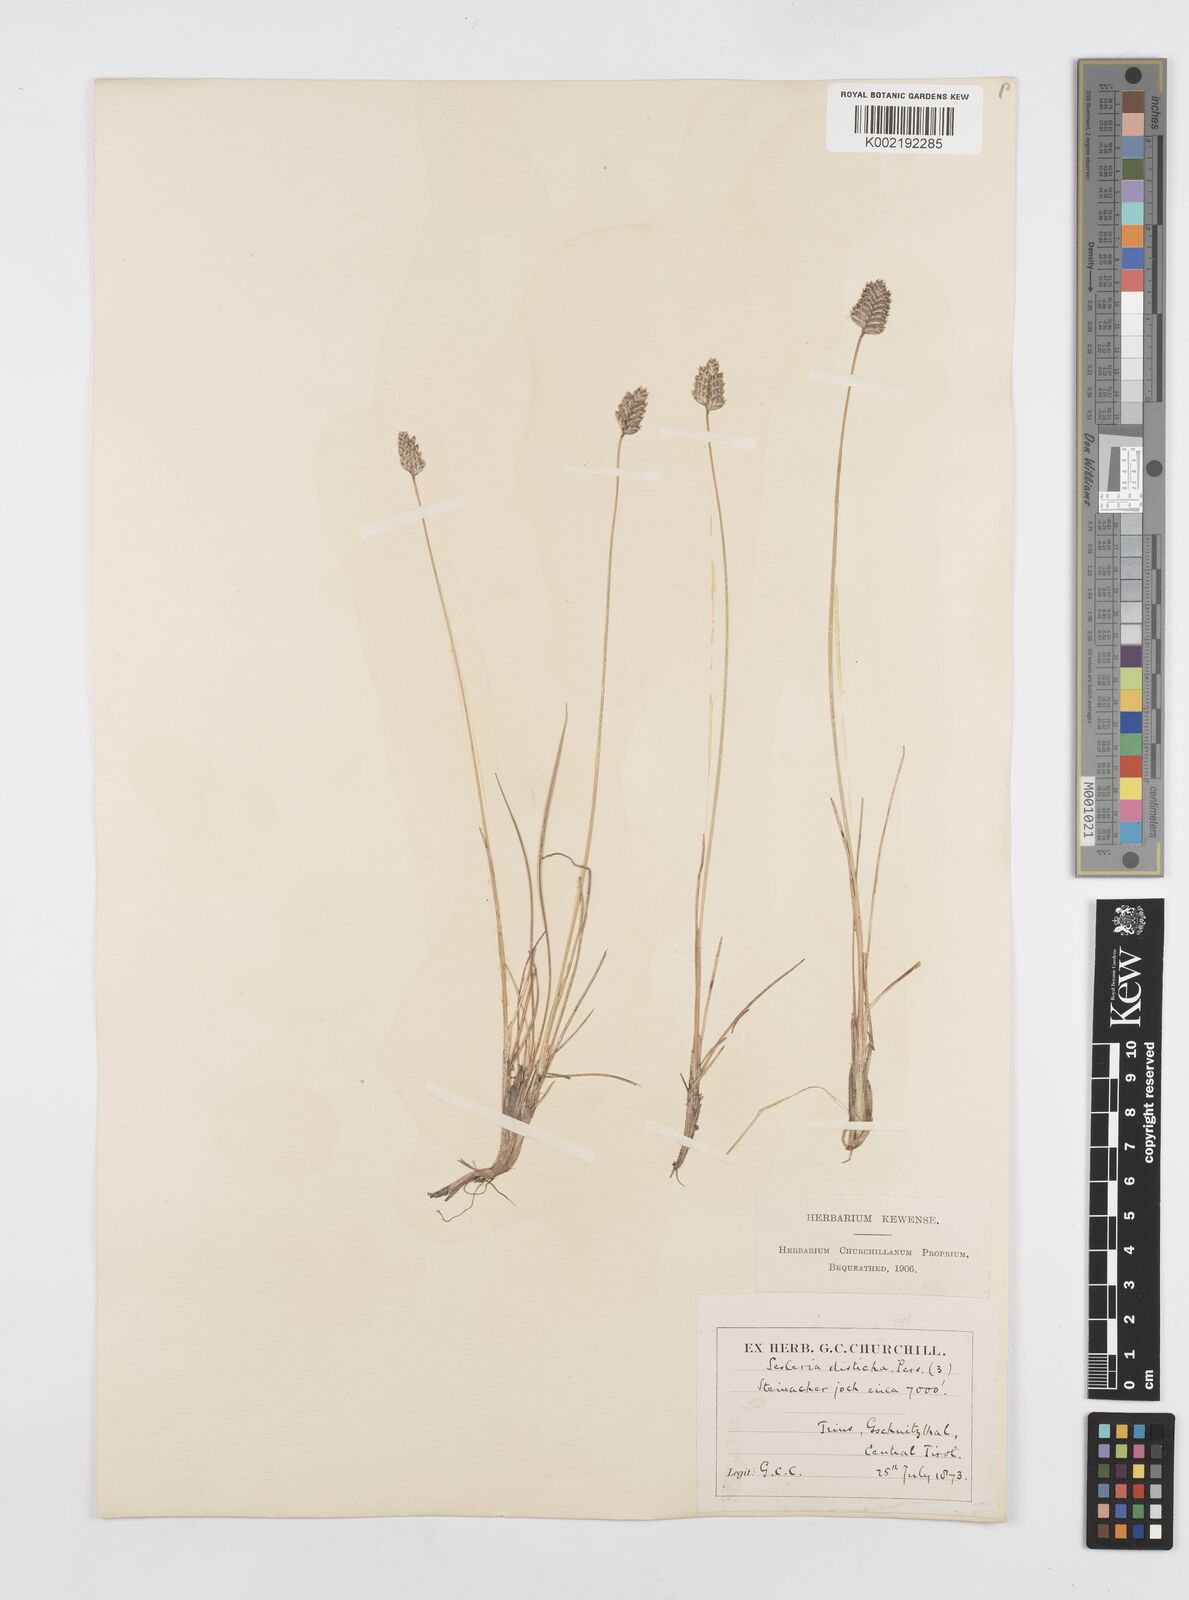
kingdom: Plantae
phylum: Tracheophyta
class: Liliopsida
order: Poales
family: Poaceae
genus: Oreochloa
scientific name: Oreochloa disticha
